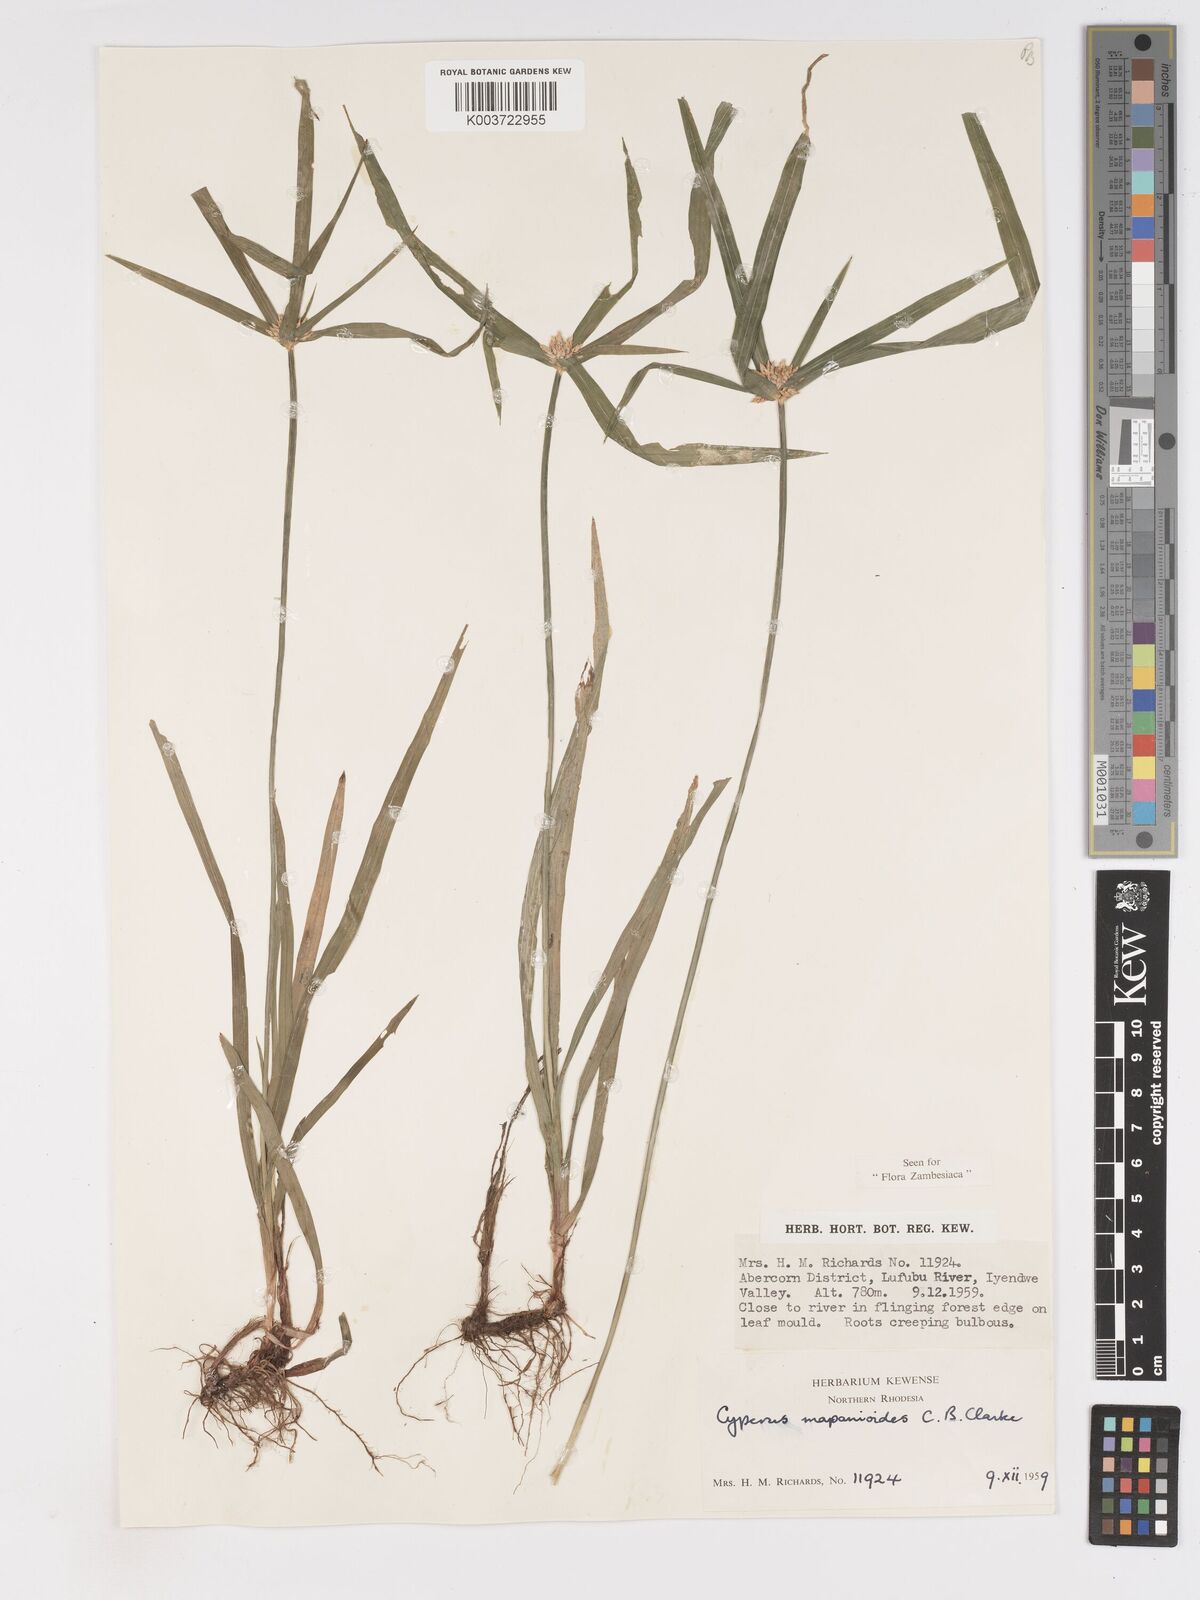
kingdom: Plantae
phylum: Tracheophyta
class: Liliopsida
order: Poales
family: Cyperaceae
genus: Cyperus
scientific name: Cyperus mapanioides
